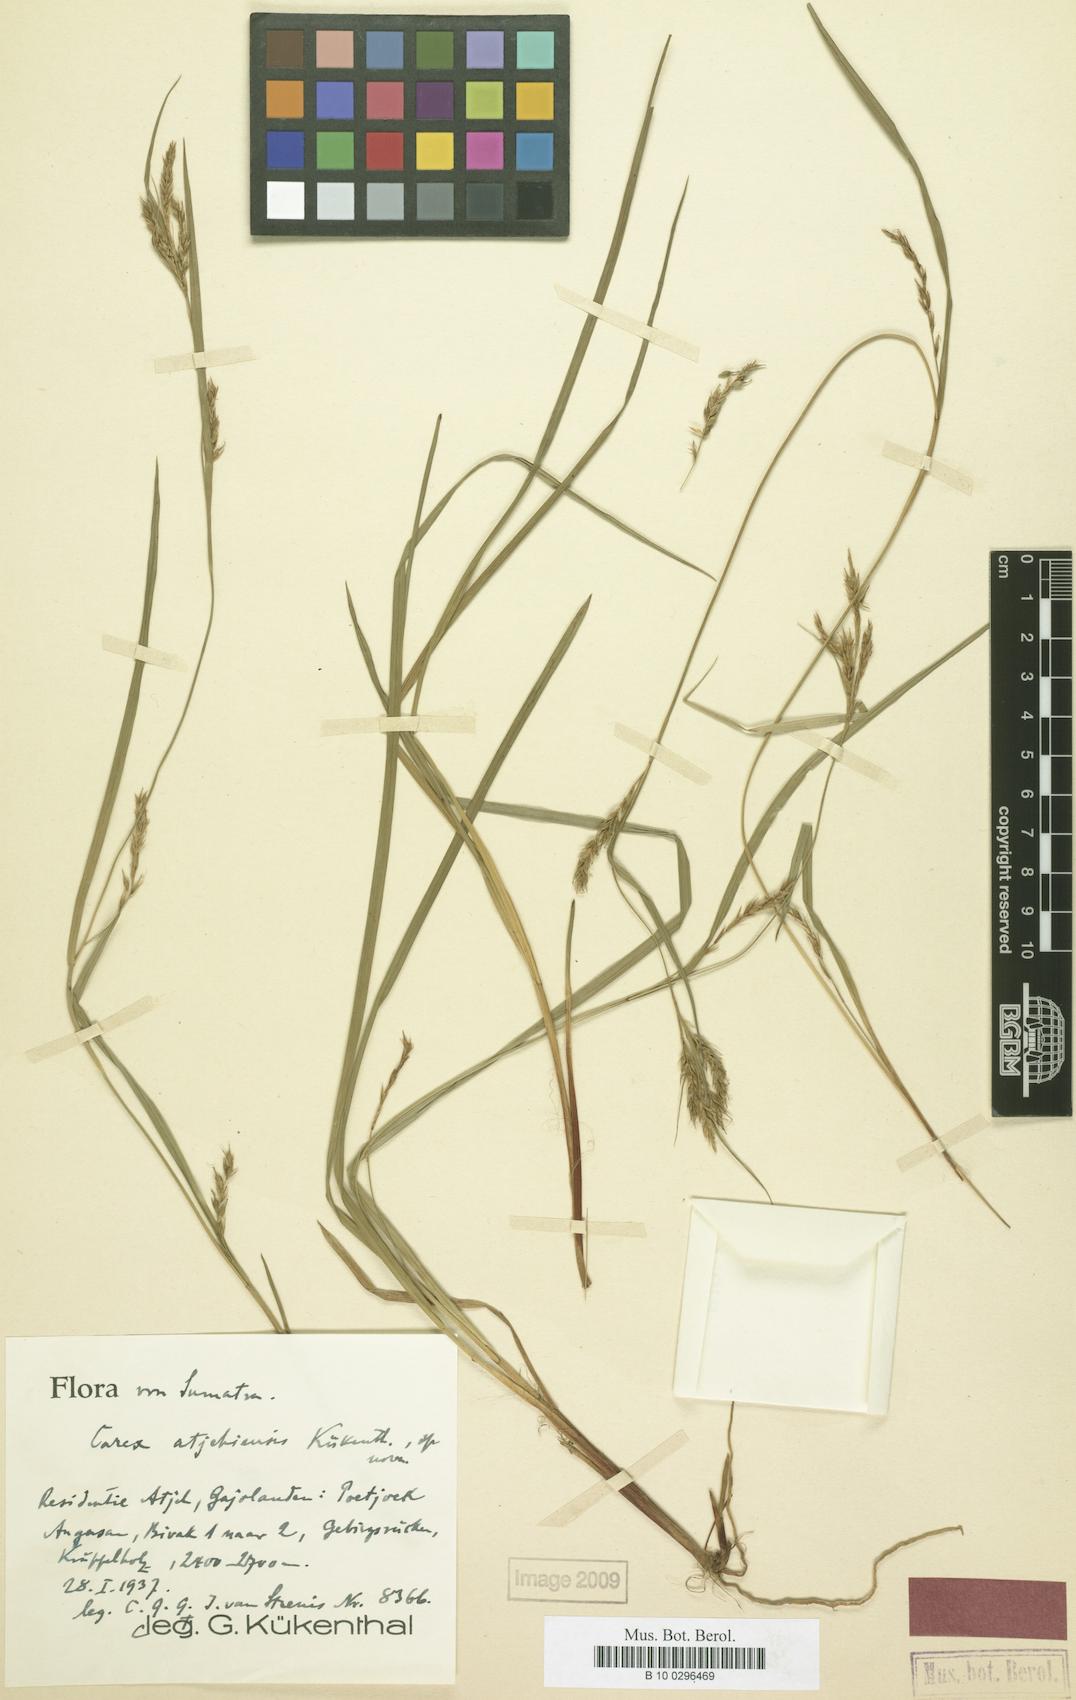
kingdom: Plantae
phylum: Tracheophyta
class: Liliopsida
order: Poales
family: Cyperaceae
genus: Carex
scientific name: Carex finitima
